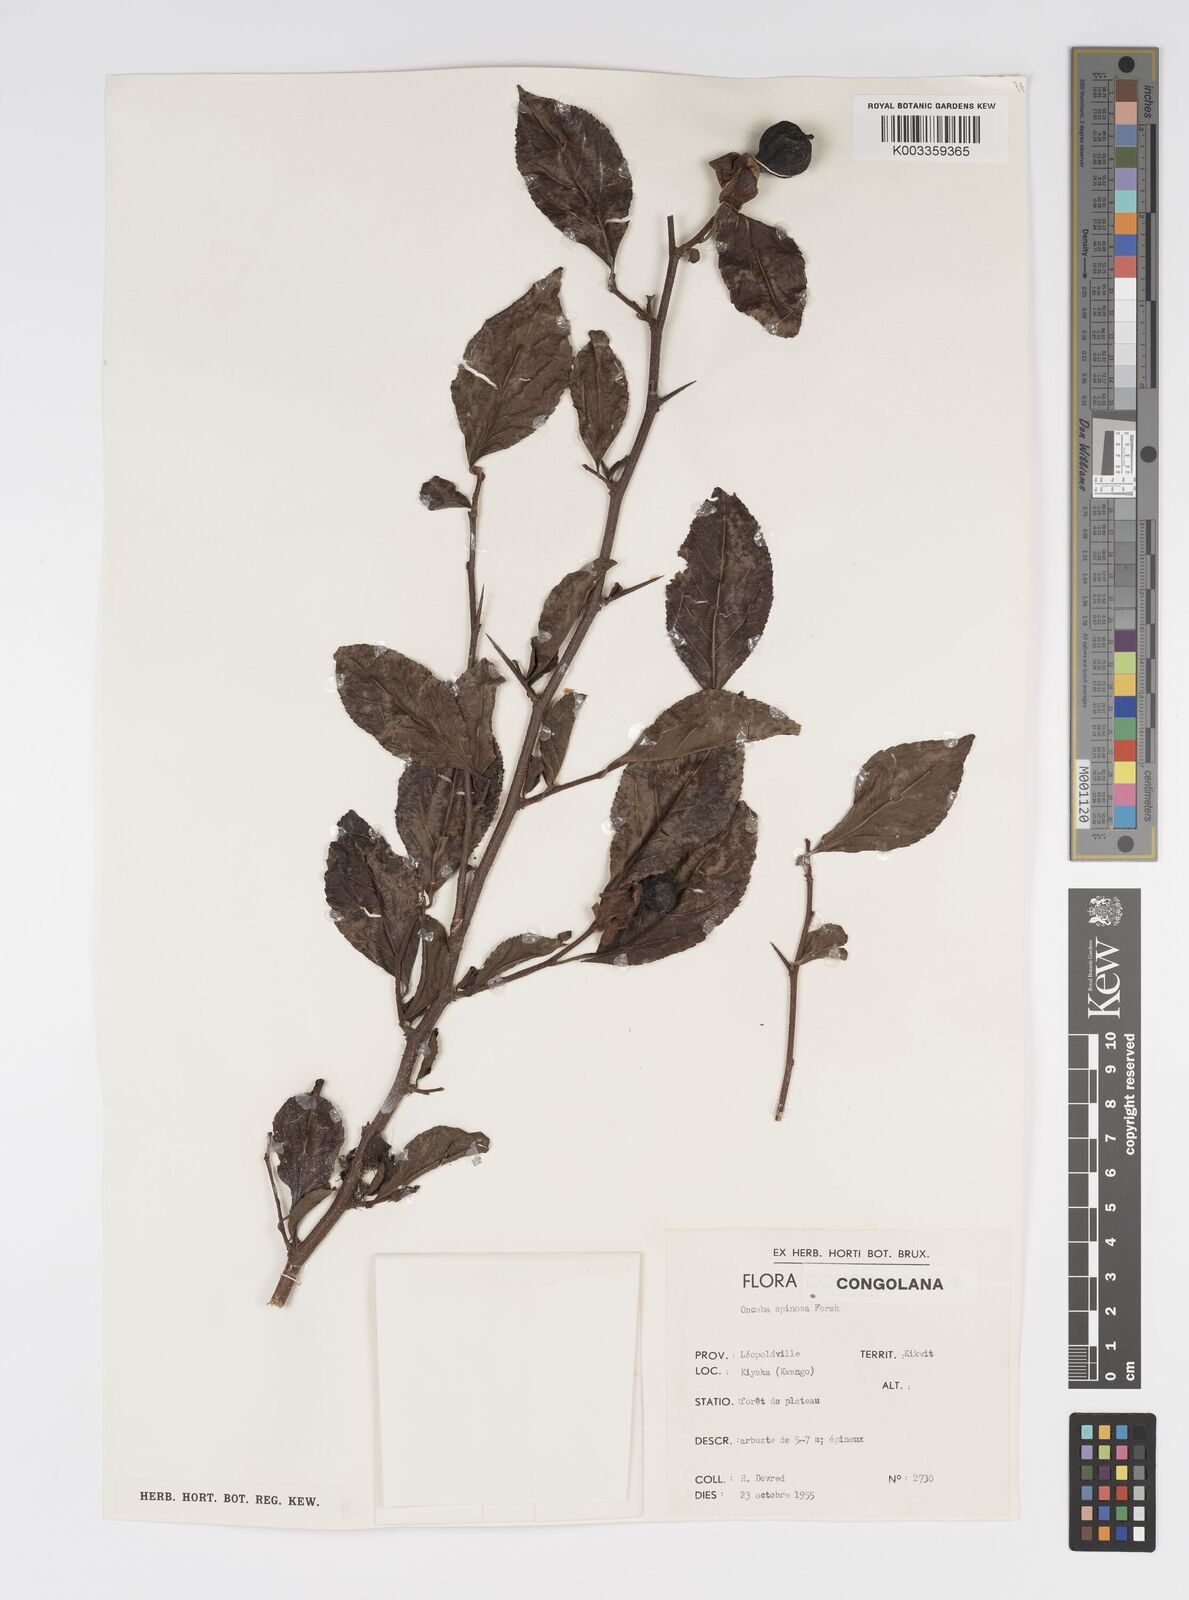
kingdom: Plantae
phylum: Tracheophyta
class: Magnoliopsida
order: Malpighiales
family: Salicaceae
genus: Oncoba
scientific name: Oncoba spinosa
